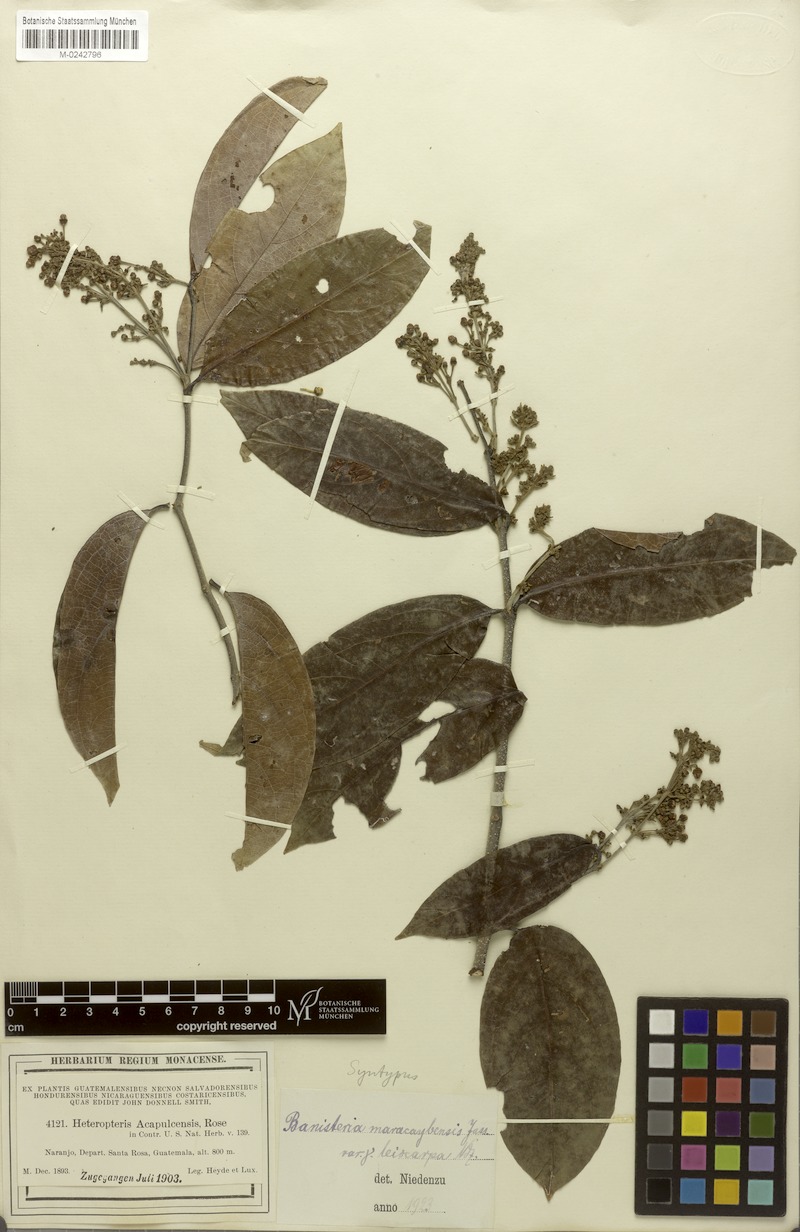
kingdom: Plantae
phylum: Tracheophyta
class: Magnoliopsida
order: Malpighiales
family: Malpighiaceae
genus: Bronwenia
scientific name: Bronwenia cornifolia
